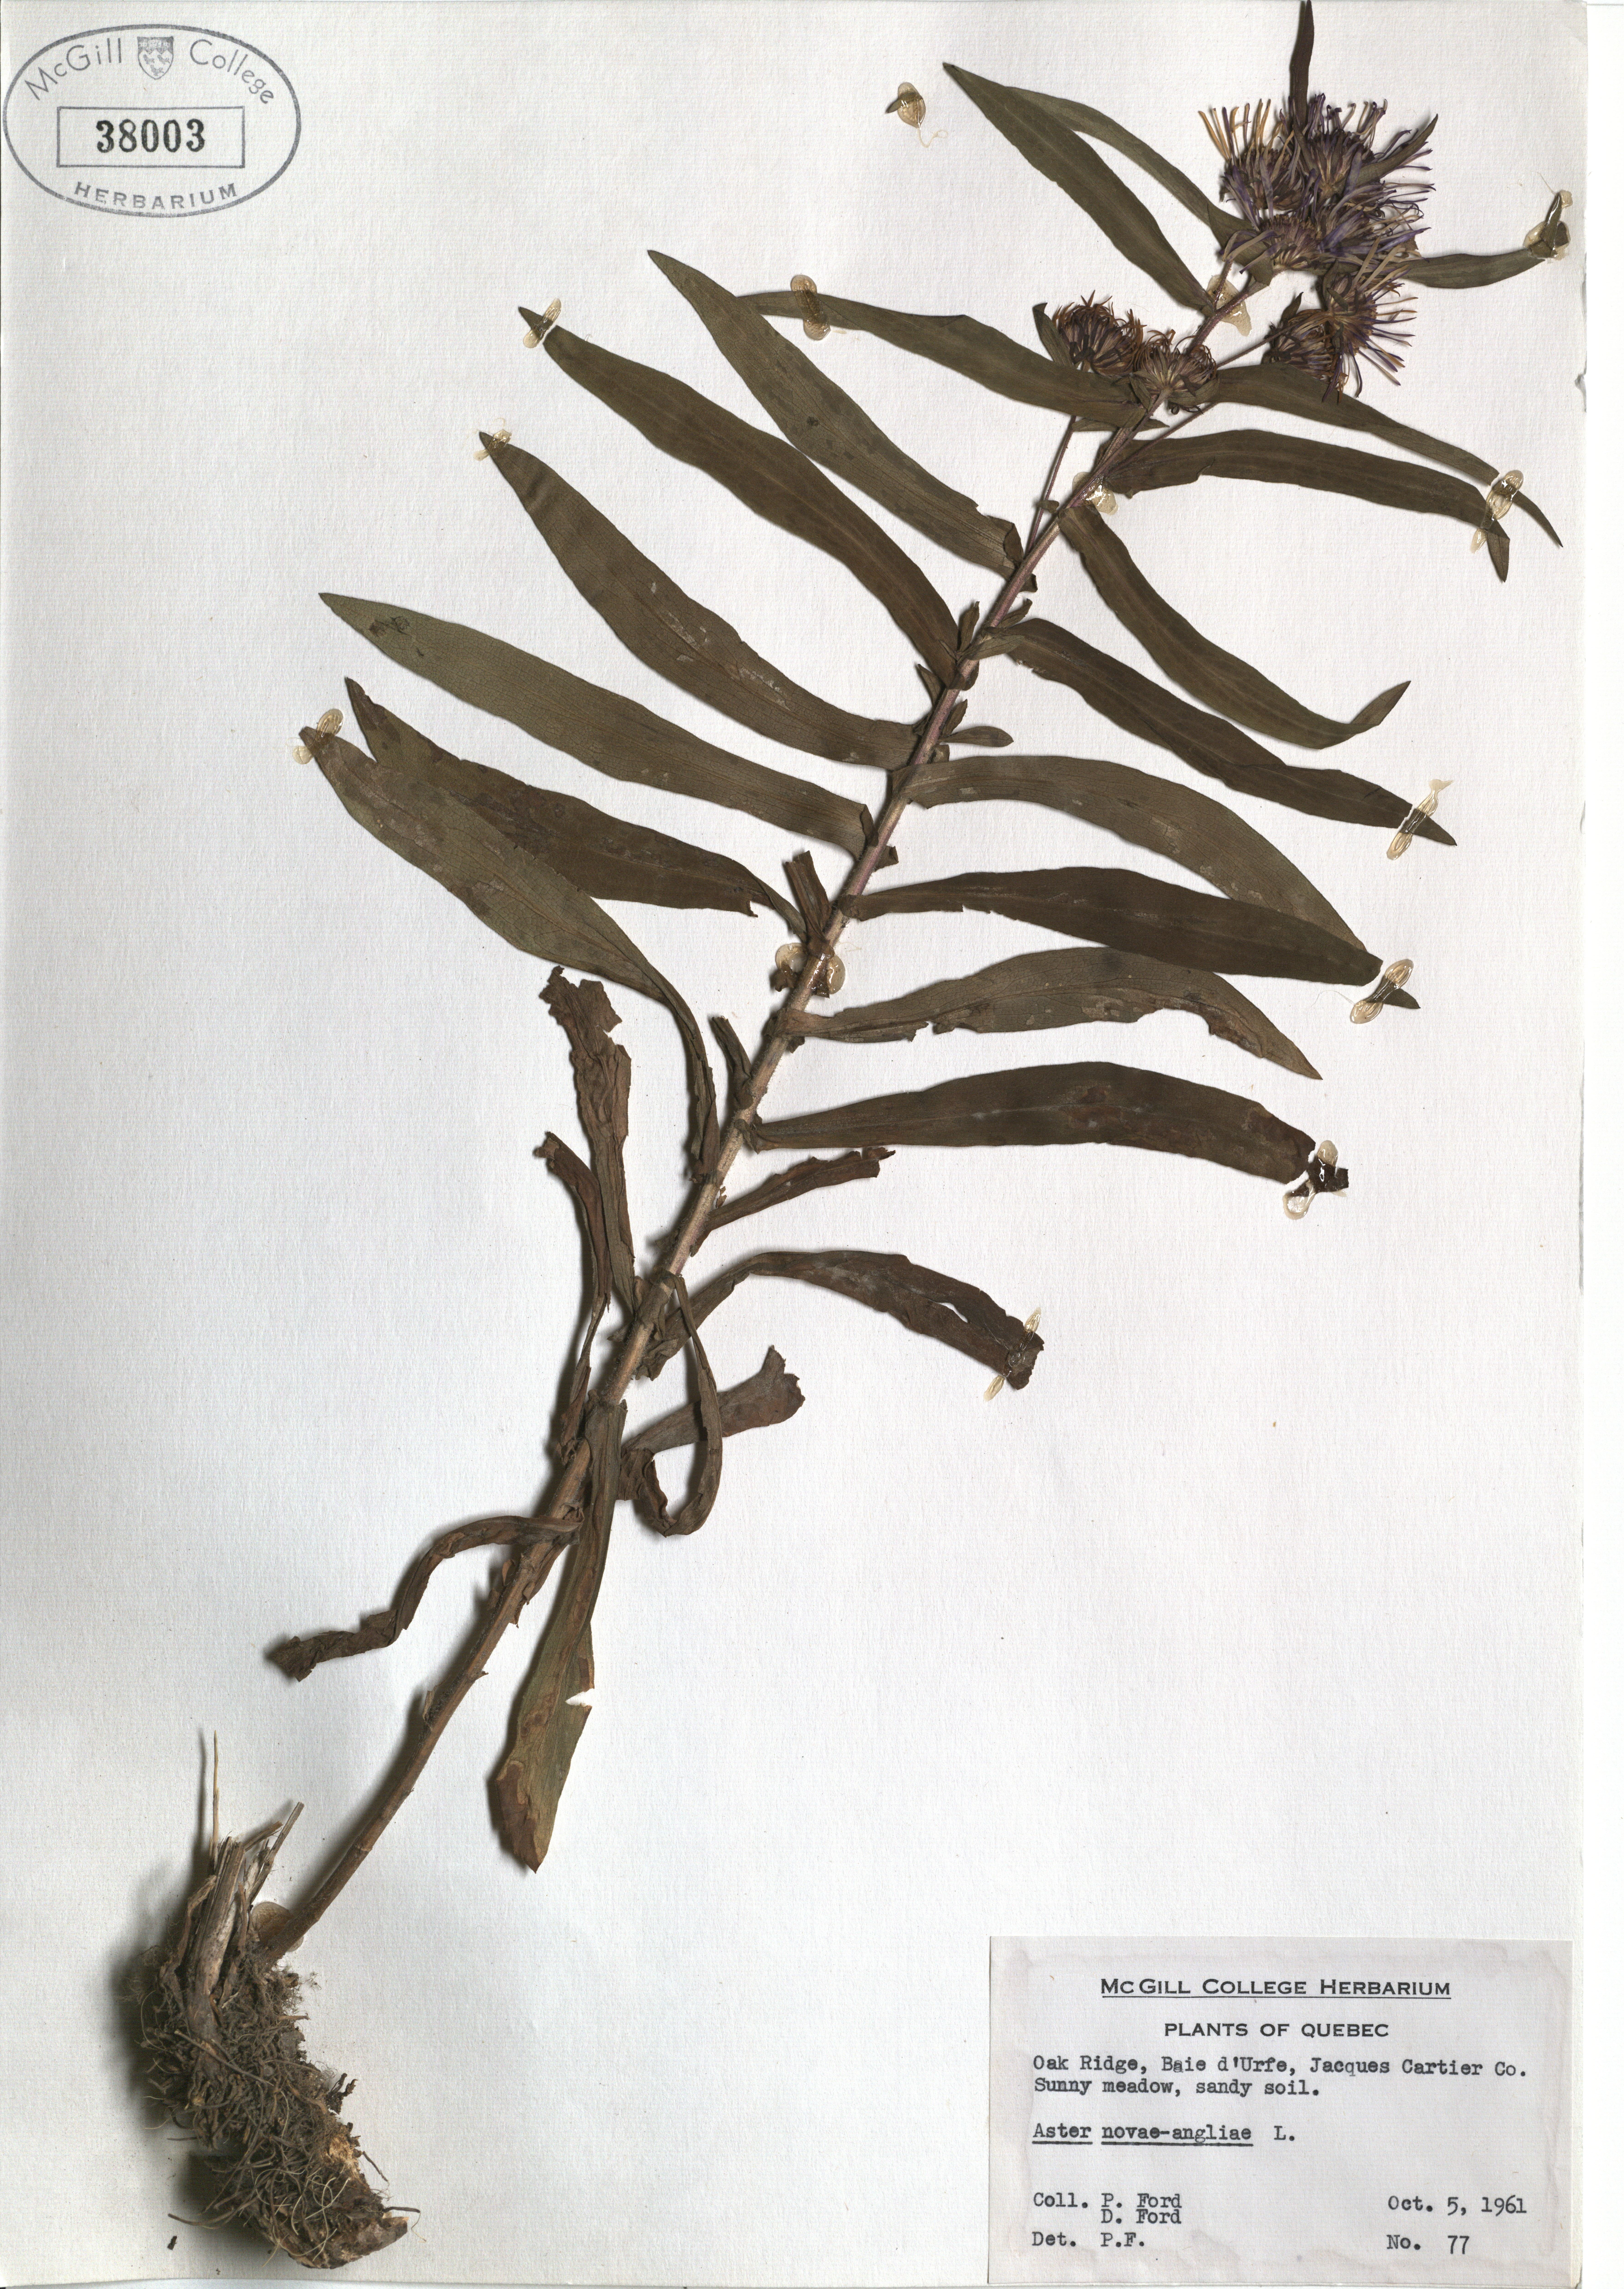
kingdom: Plantae
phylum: Tracheophyta
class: Magnoliopsida
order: Asterales
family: Asteraceae
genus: Symphyotrichum
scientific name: Symphyotrichum novae-angliae
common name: Michaelmas daisy
